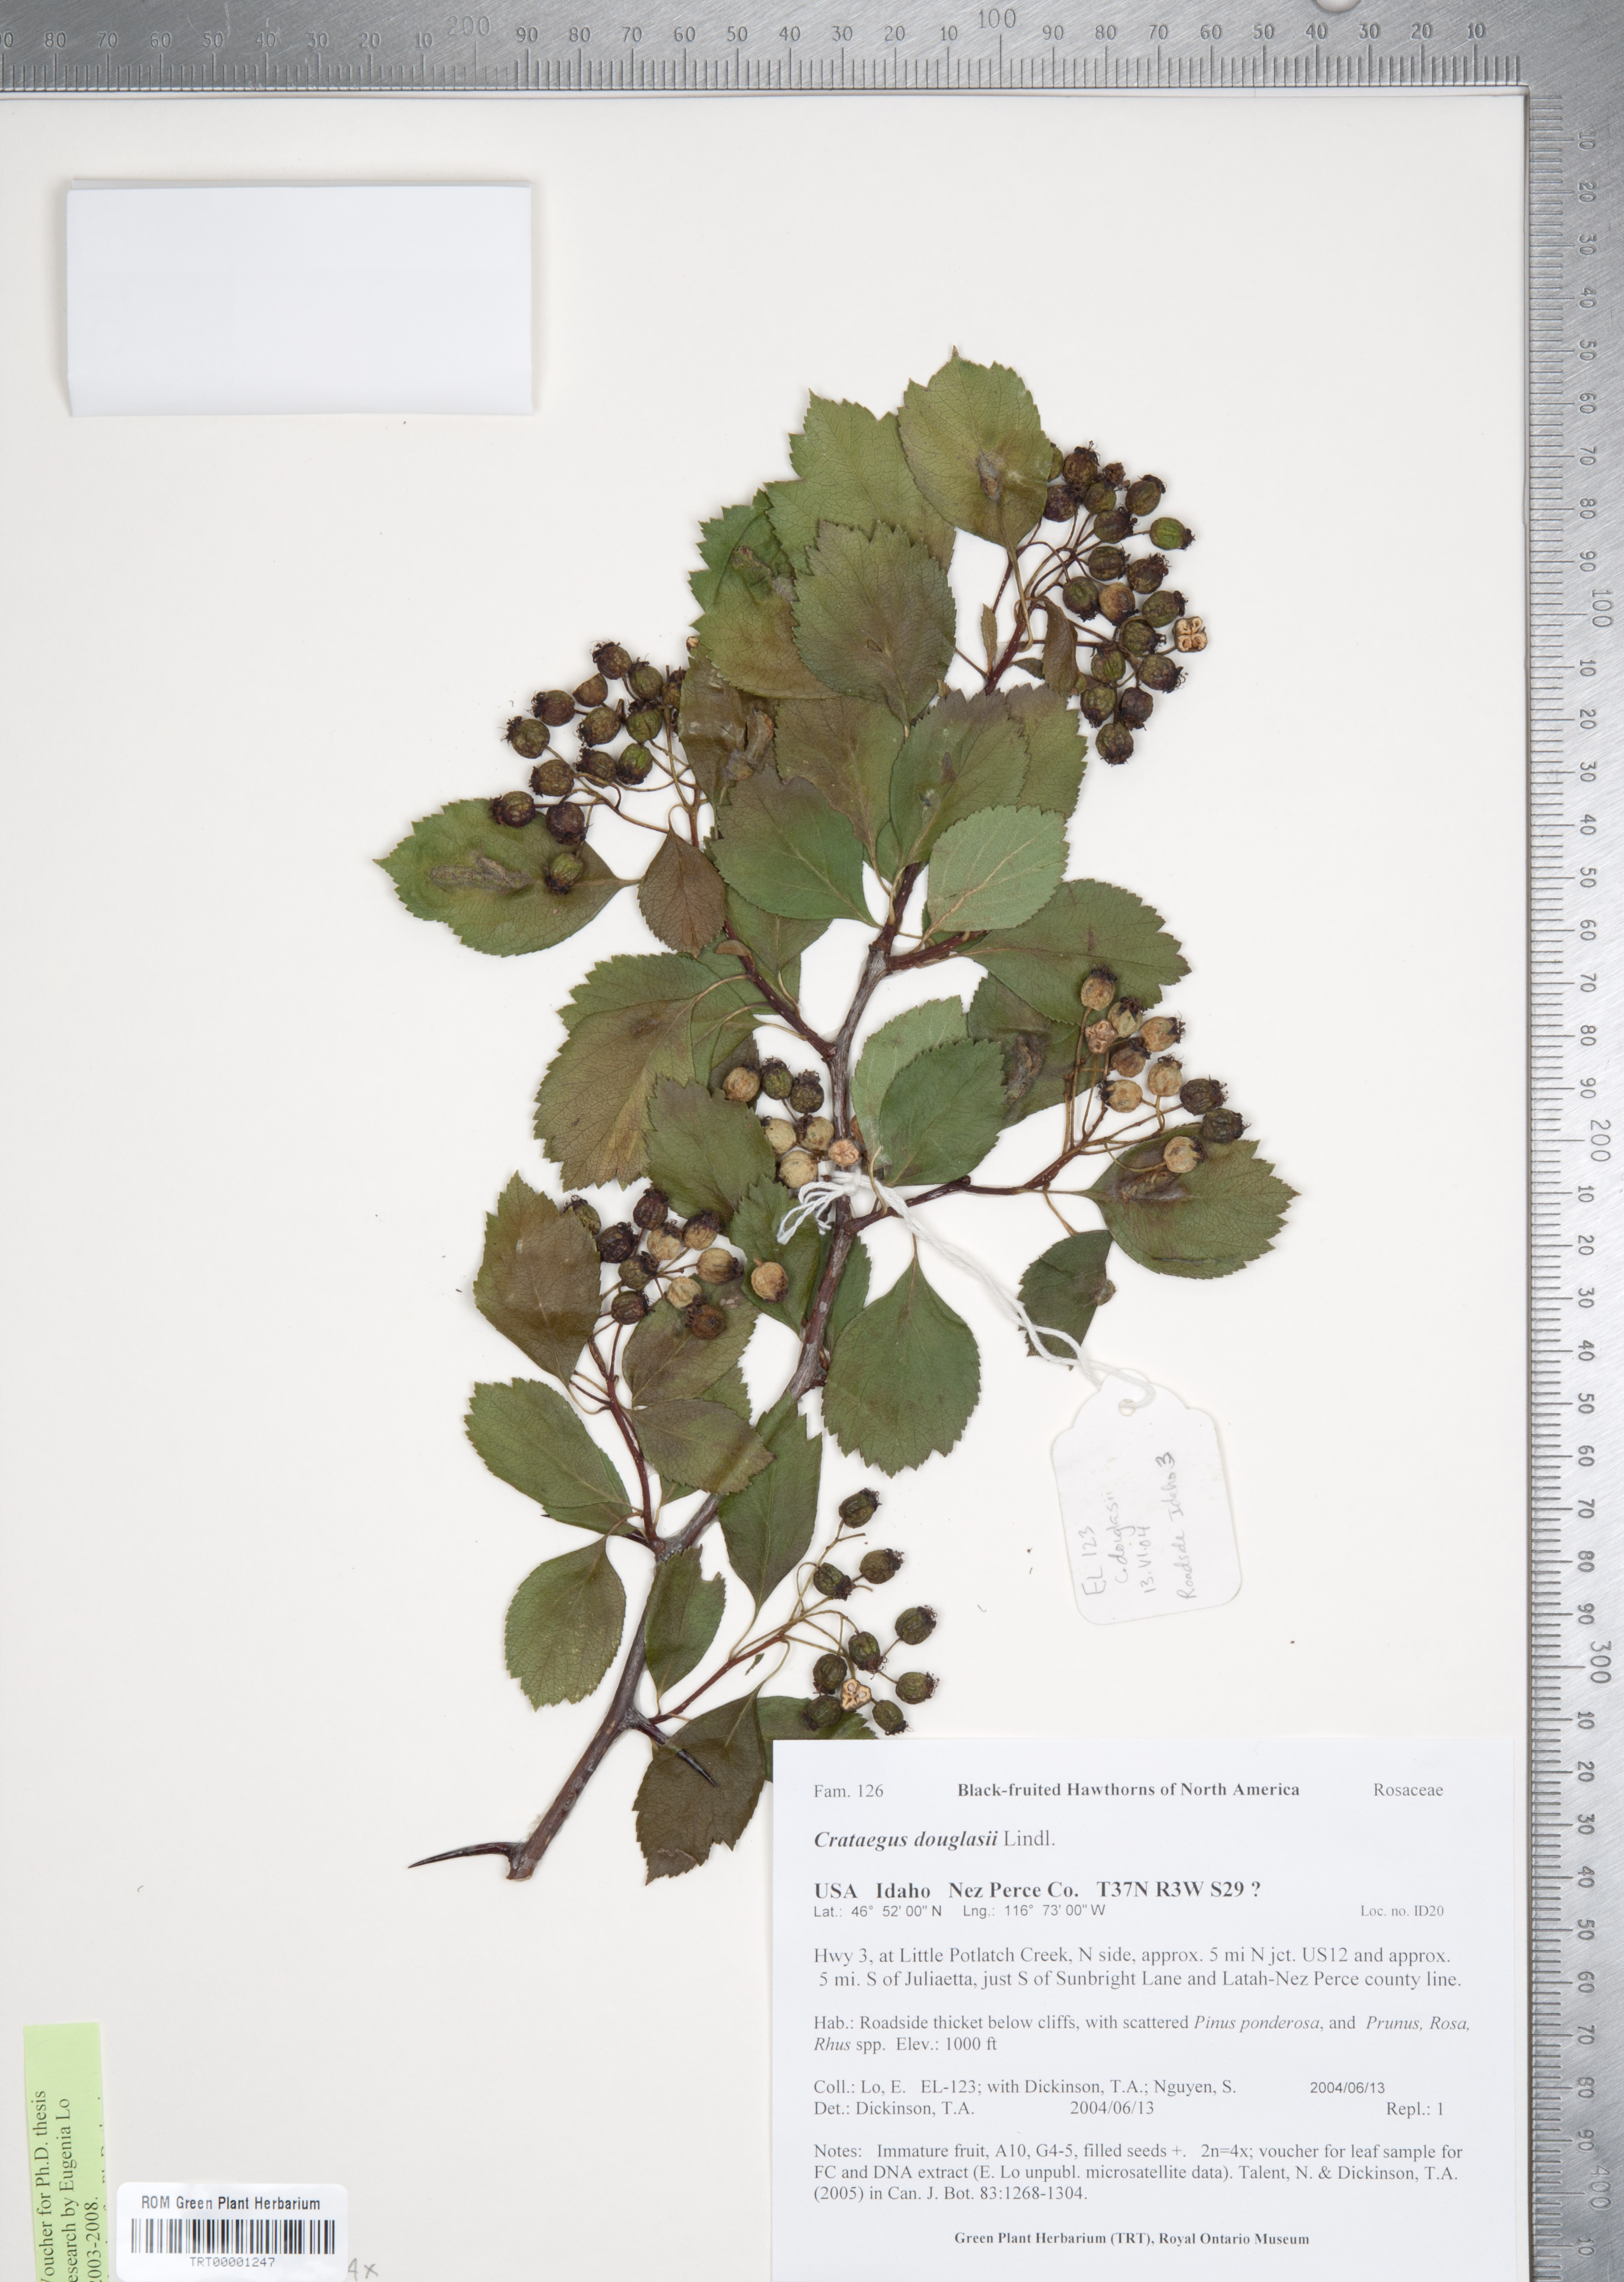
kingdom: Plantae
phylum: Tracheophyta
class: Magnoliopsida
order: Rosales
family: Rosaceae
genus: Crataegus
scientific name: Crataegus douglasii
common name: Black hawthorn
